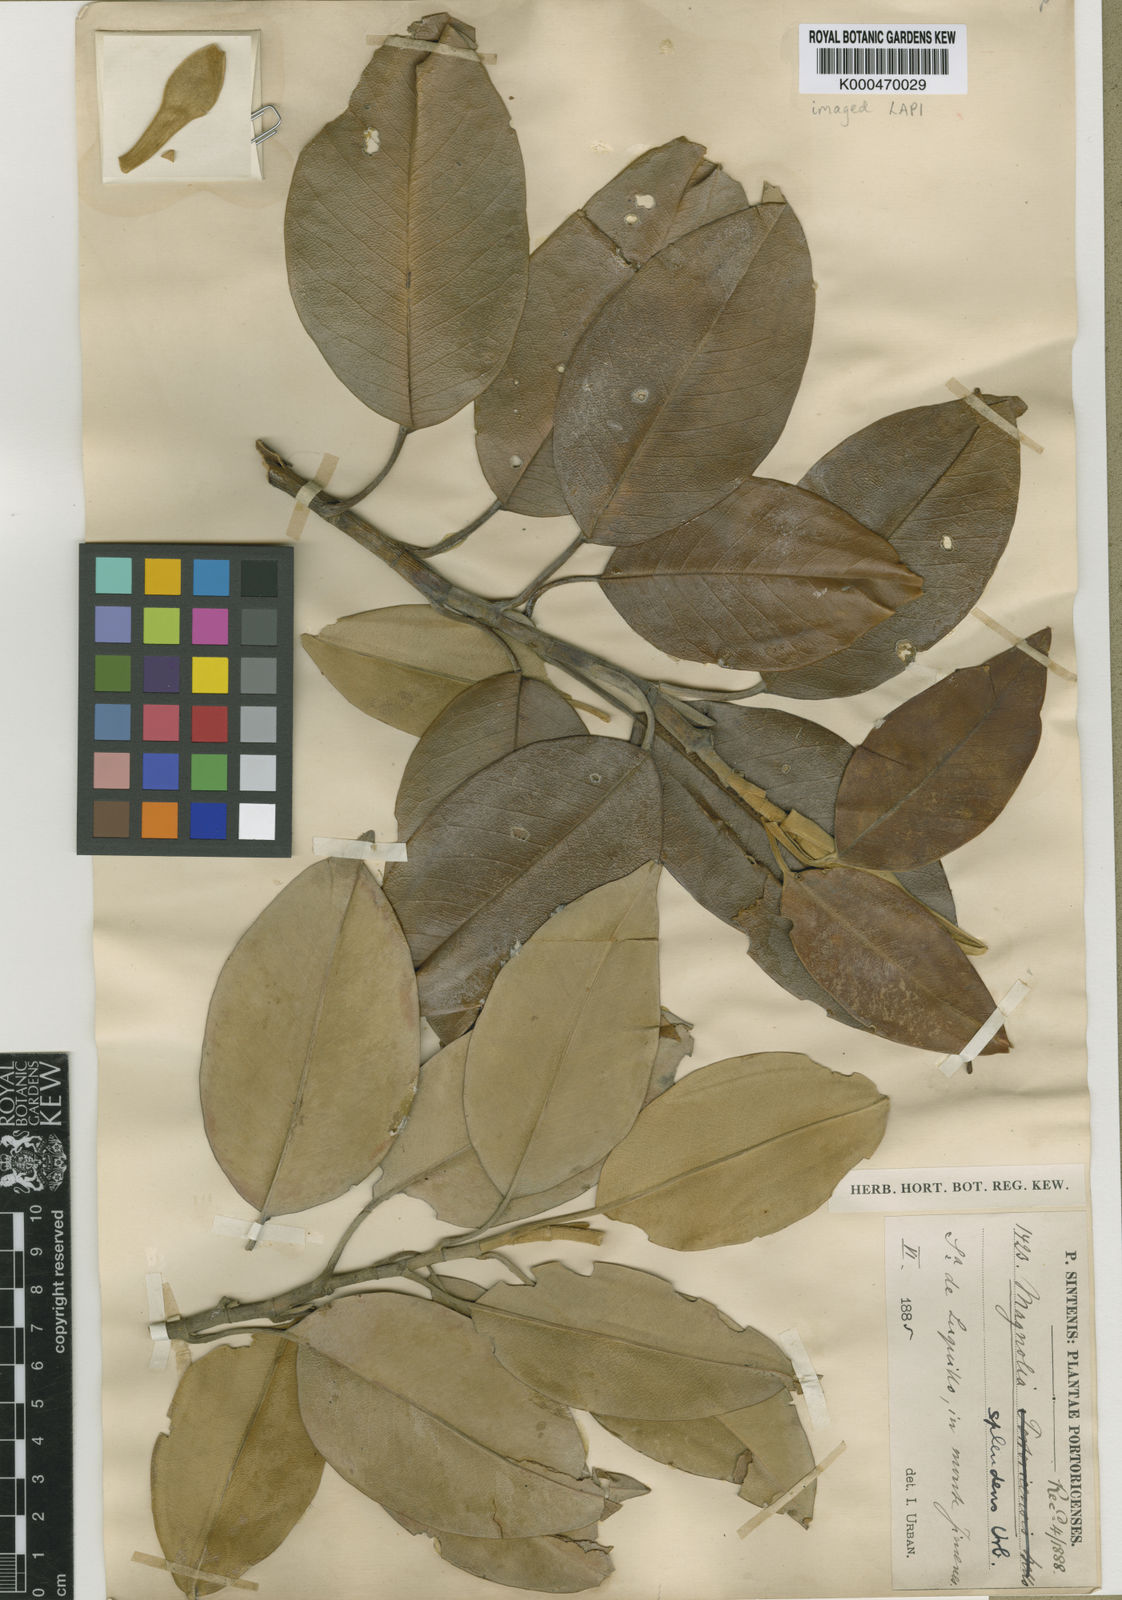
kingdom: Plantae
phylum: Tracheophyta
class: Magnoliopsida
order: Magnoliales
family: Magnoliaceae
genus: Magnolia
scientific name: Magnolia splendens
